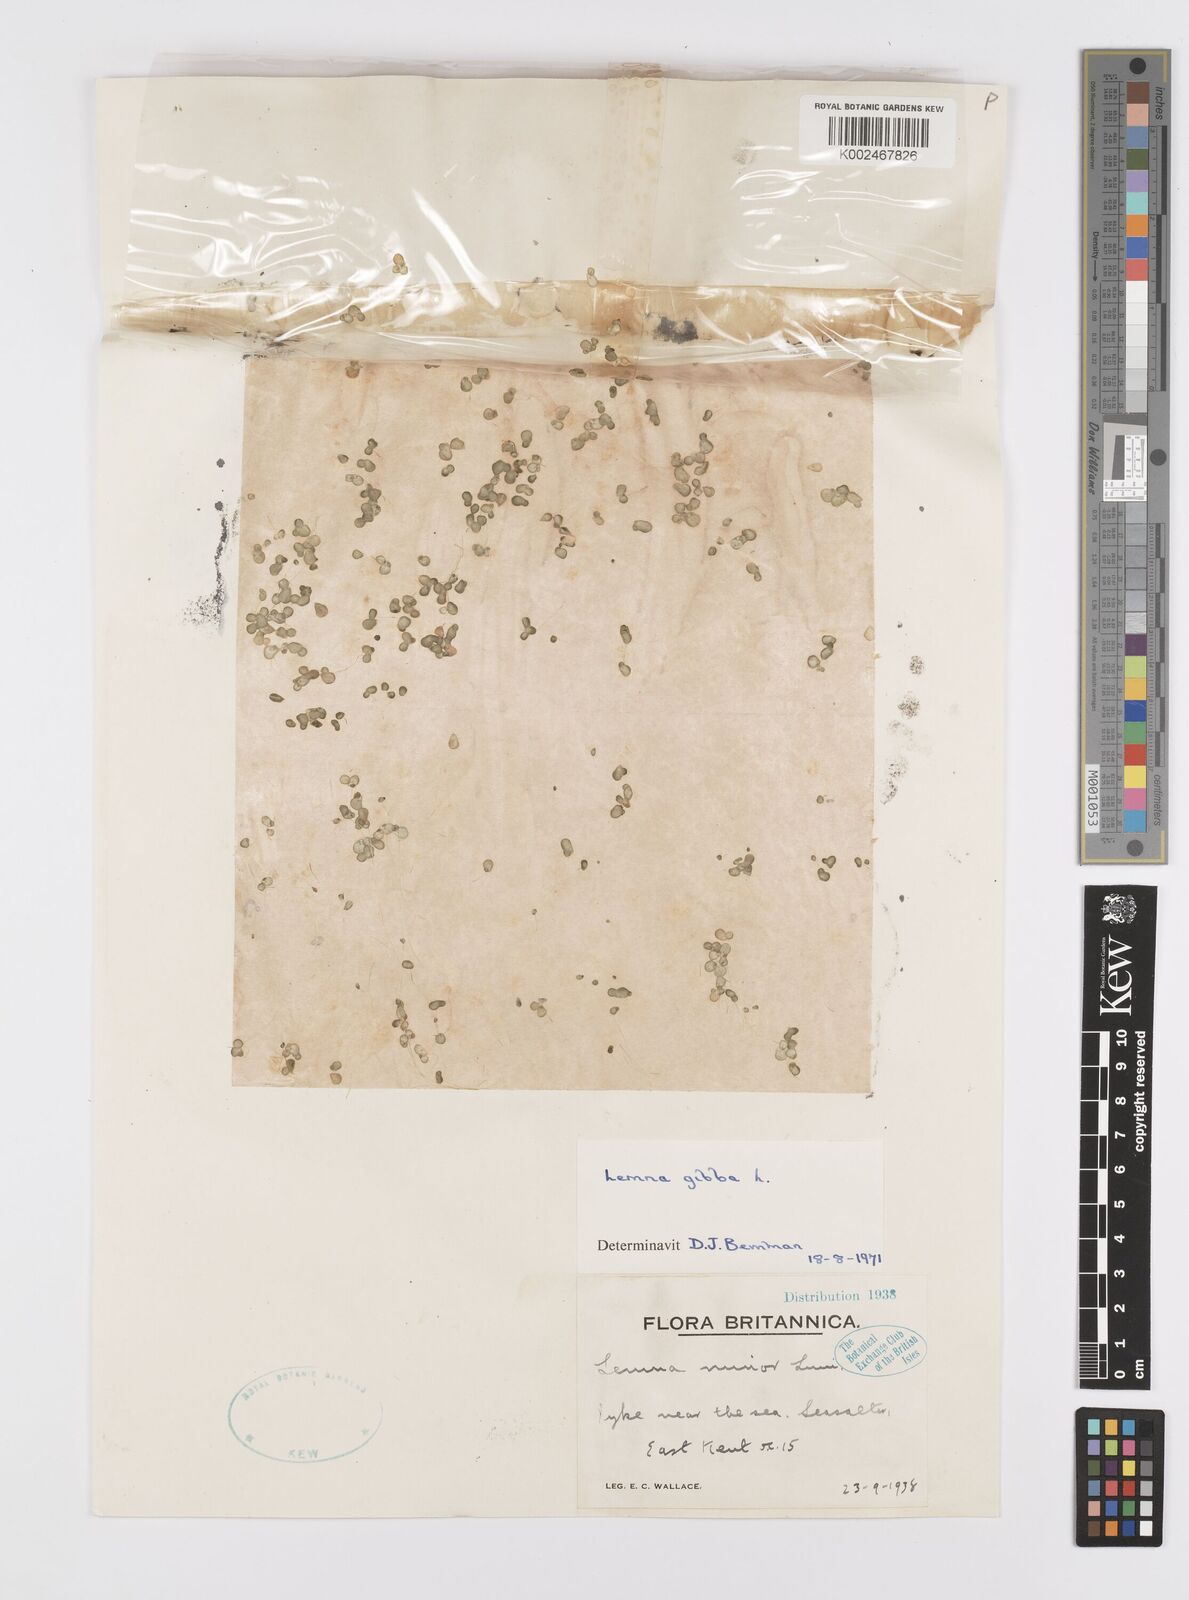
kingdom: Plantae
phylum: Tracheophyta
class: Liliopsida
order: Alismatales
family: Araceae
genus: Lemna
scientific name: Lemna gibba
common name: Fat duckweed
